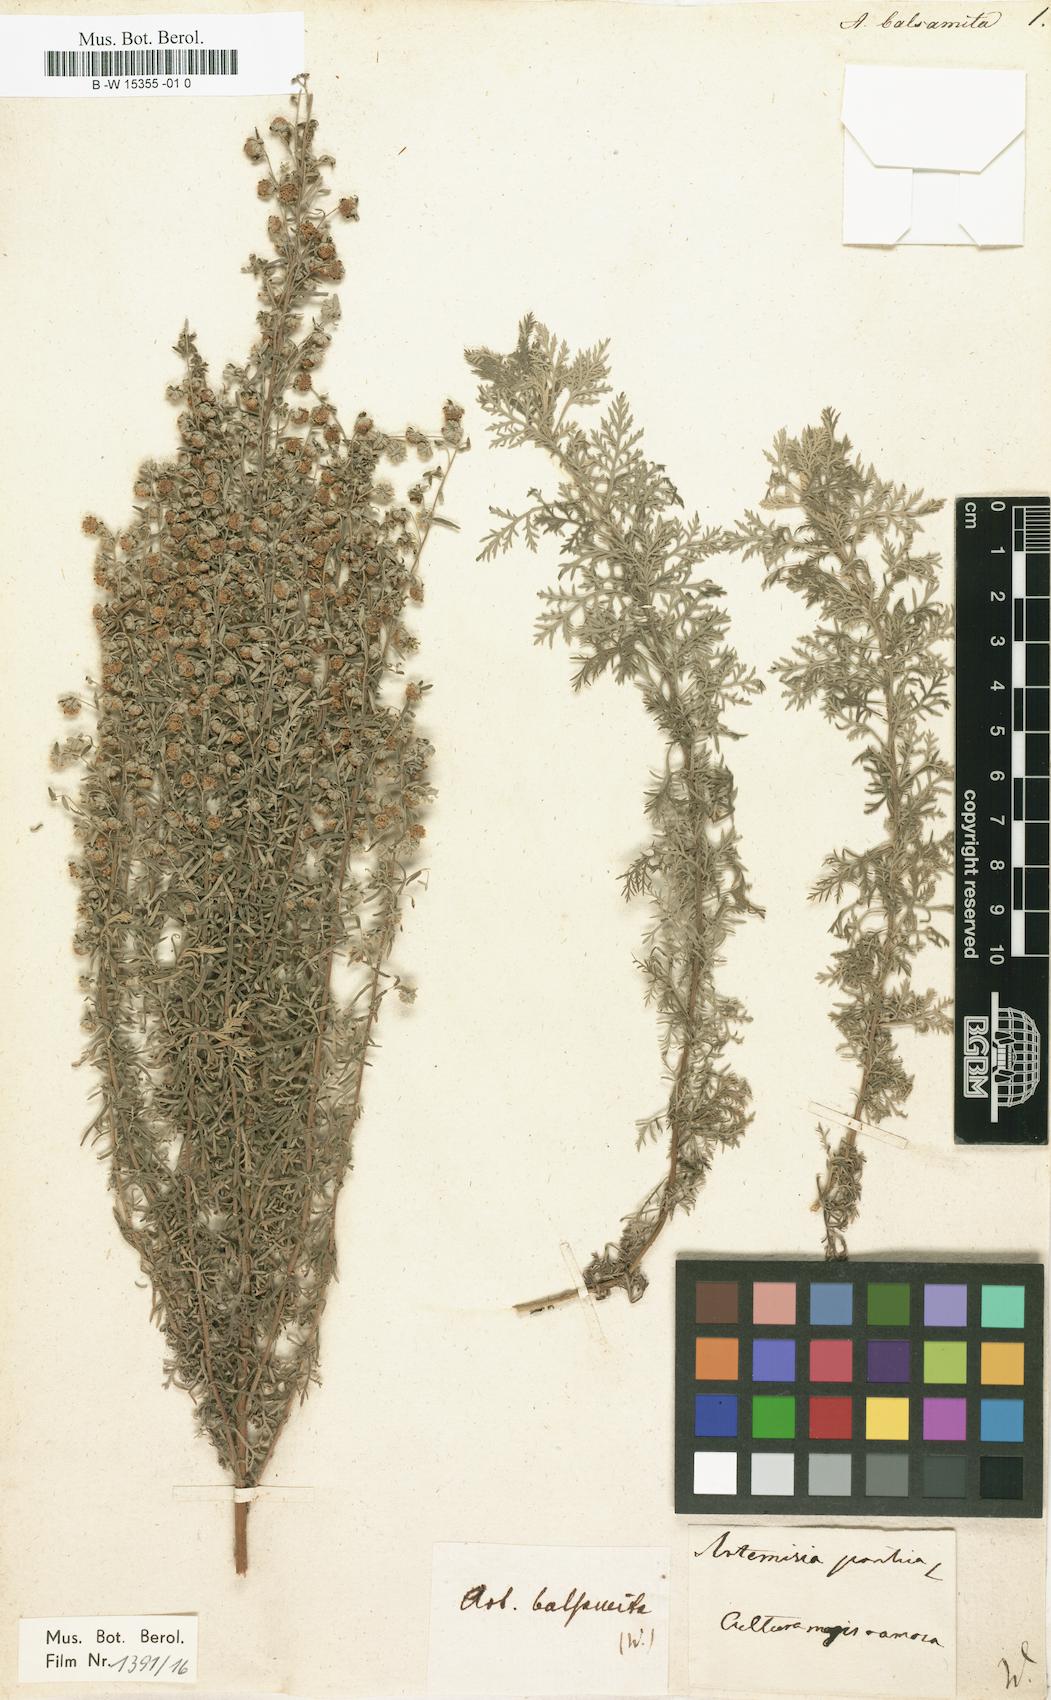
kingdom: Plantae
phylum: Tracheophyta
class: Magnoliopsida
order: Asterales
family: Asteraceae
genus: Artemisia
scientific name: Artemisia pontica
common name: Roman wormwood
